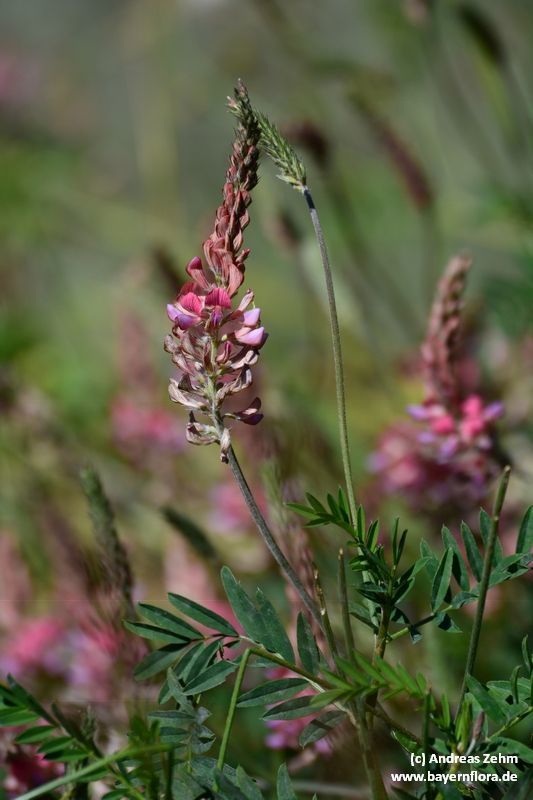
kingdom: Plantae
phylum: Tracheophyta
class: Magnoliopsida
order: Fabales
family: Fabaceae
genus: Onobrychis
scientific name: Onobrychis viciifolia
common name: Sainfoin
